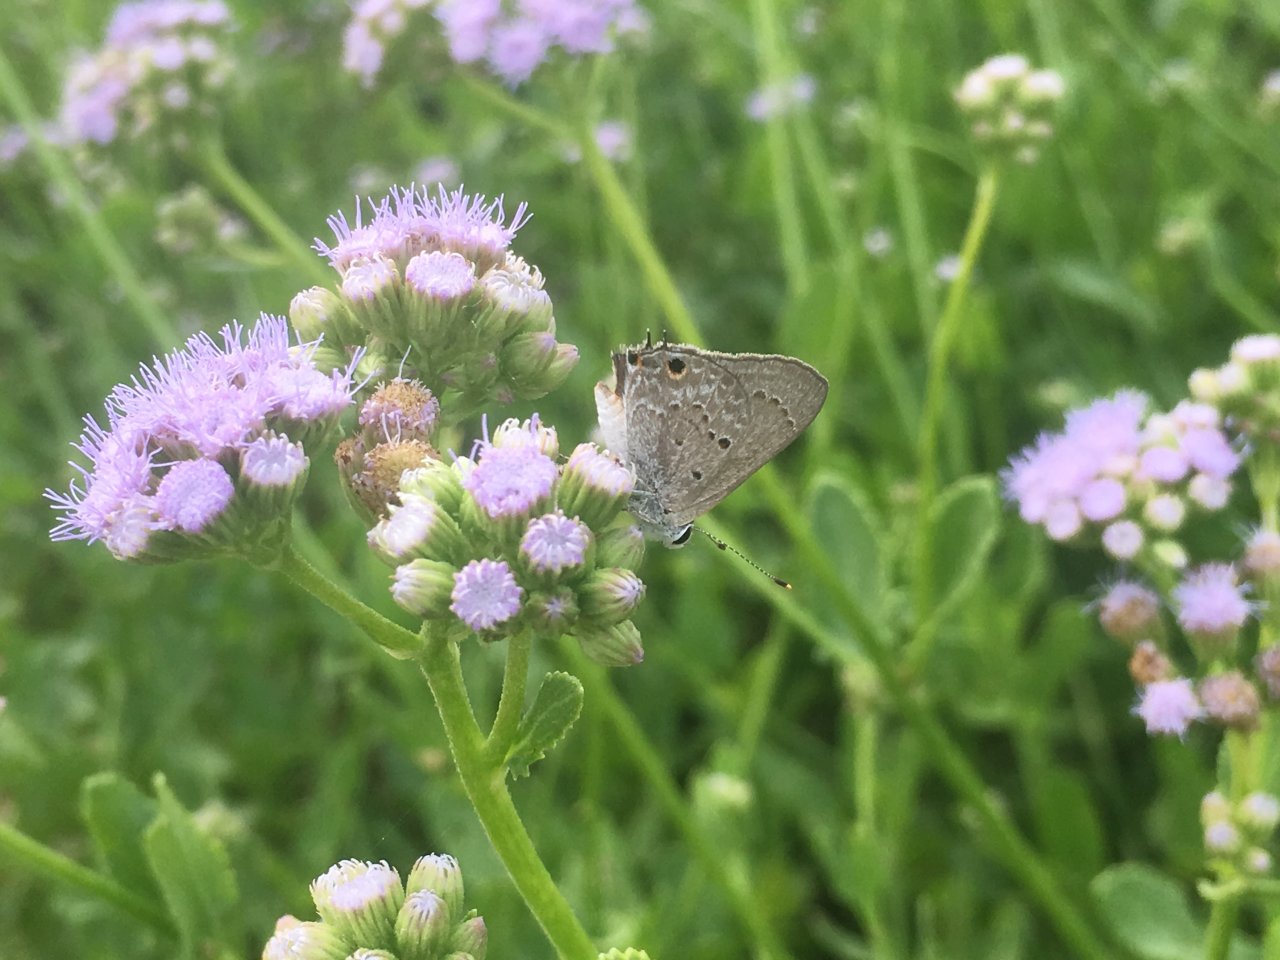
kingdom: Animalia
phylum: Arthropoda
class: Insecta
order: Lepidoptera
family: Lycaenidae
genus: Callicista
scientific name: Callicista columella
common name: Mallow Scrub-Hairstreak
